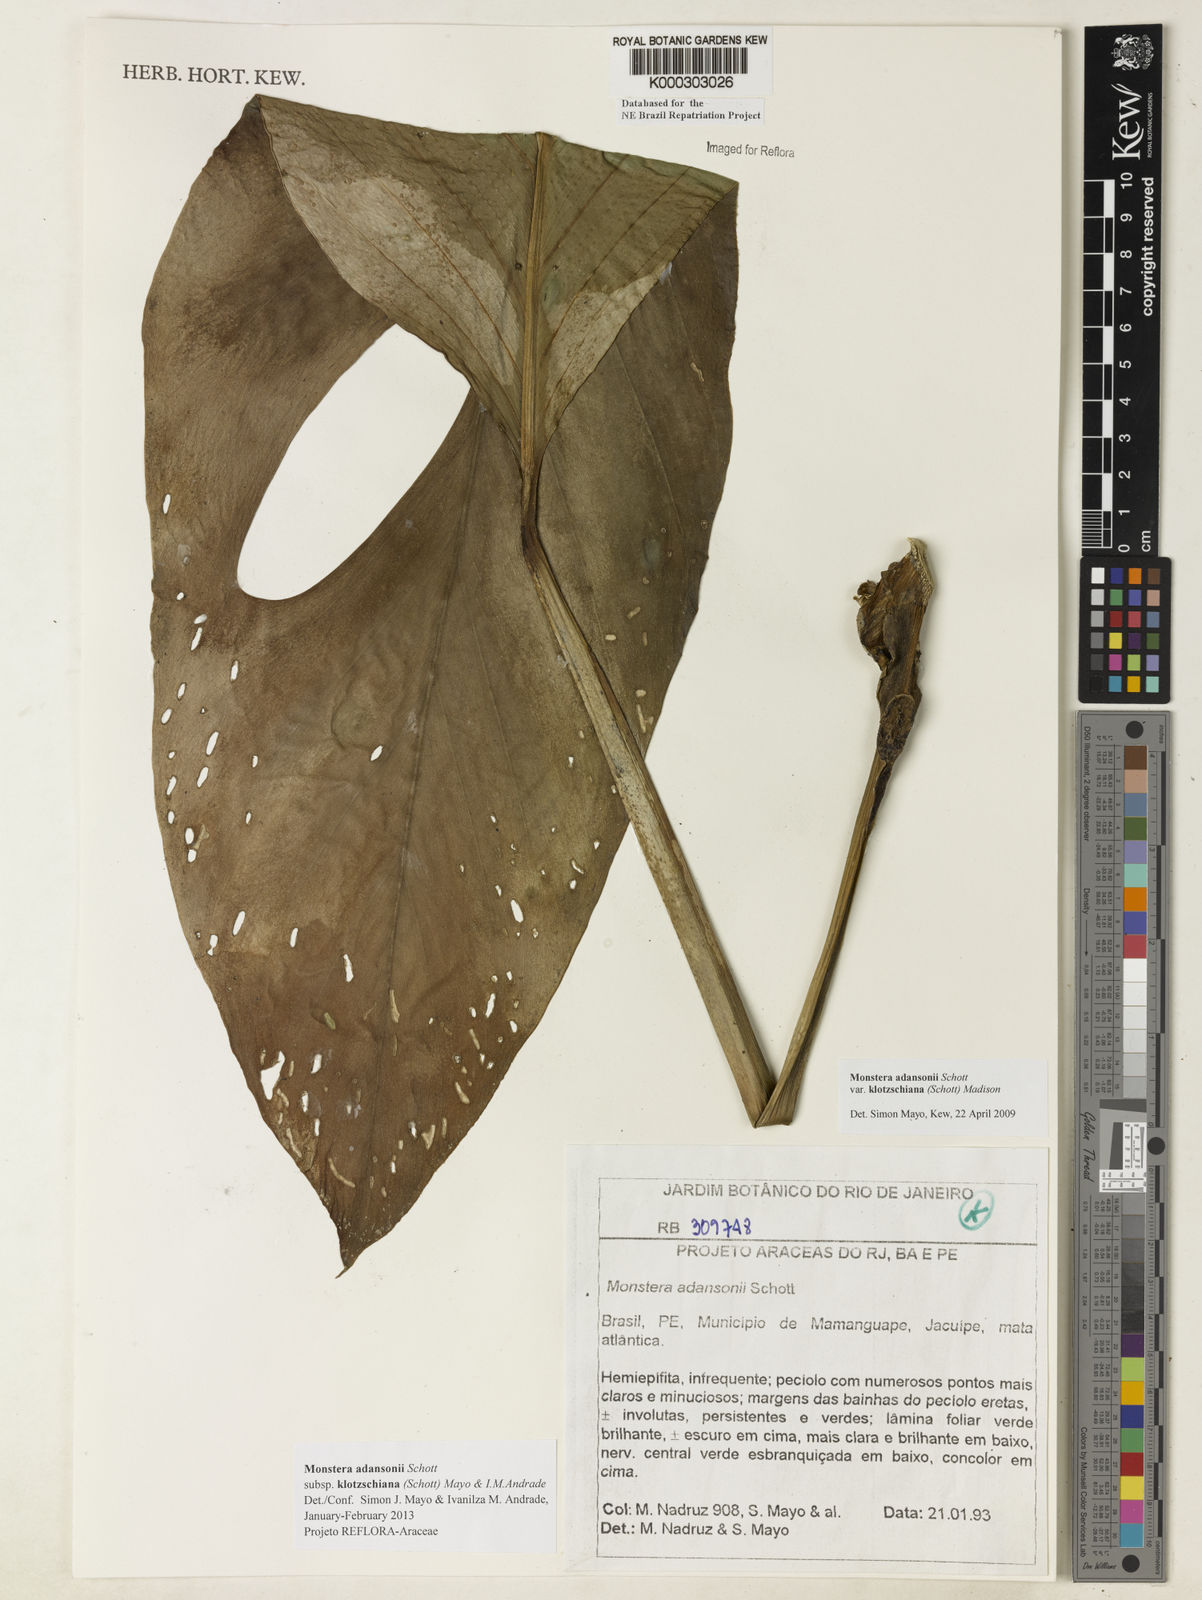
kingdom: Plantae
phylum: Tracheophyta
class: Liliopsida
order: Alismatales
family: Araceae
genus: Monstera
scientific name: Monstera adansonii
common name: Tarovine
